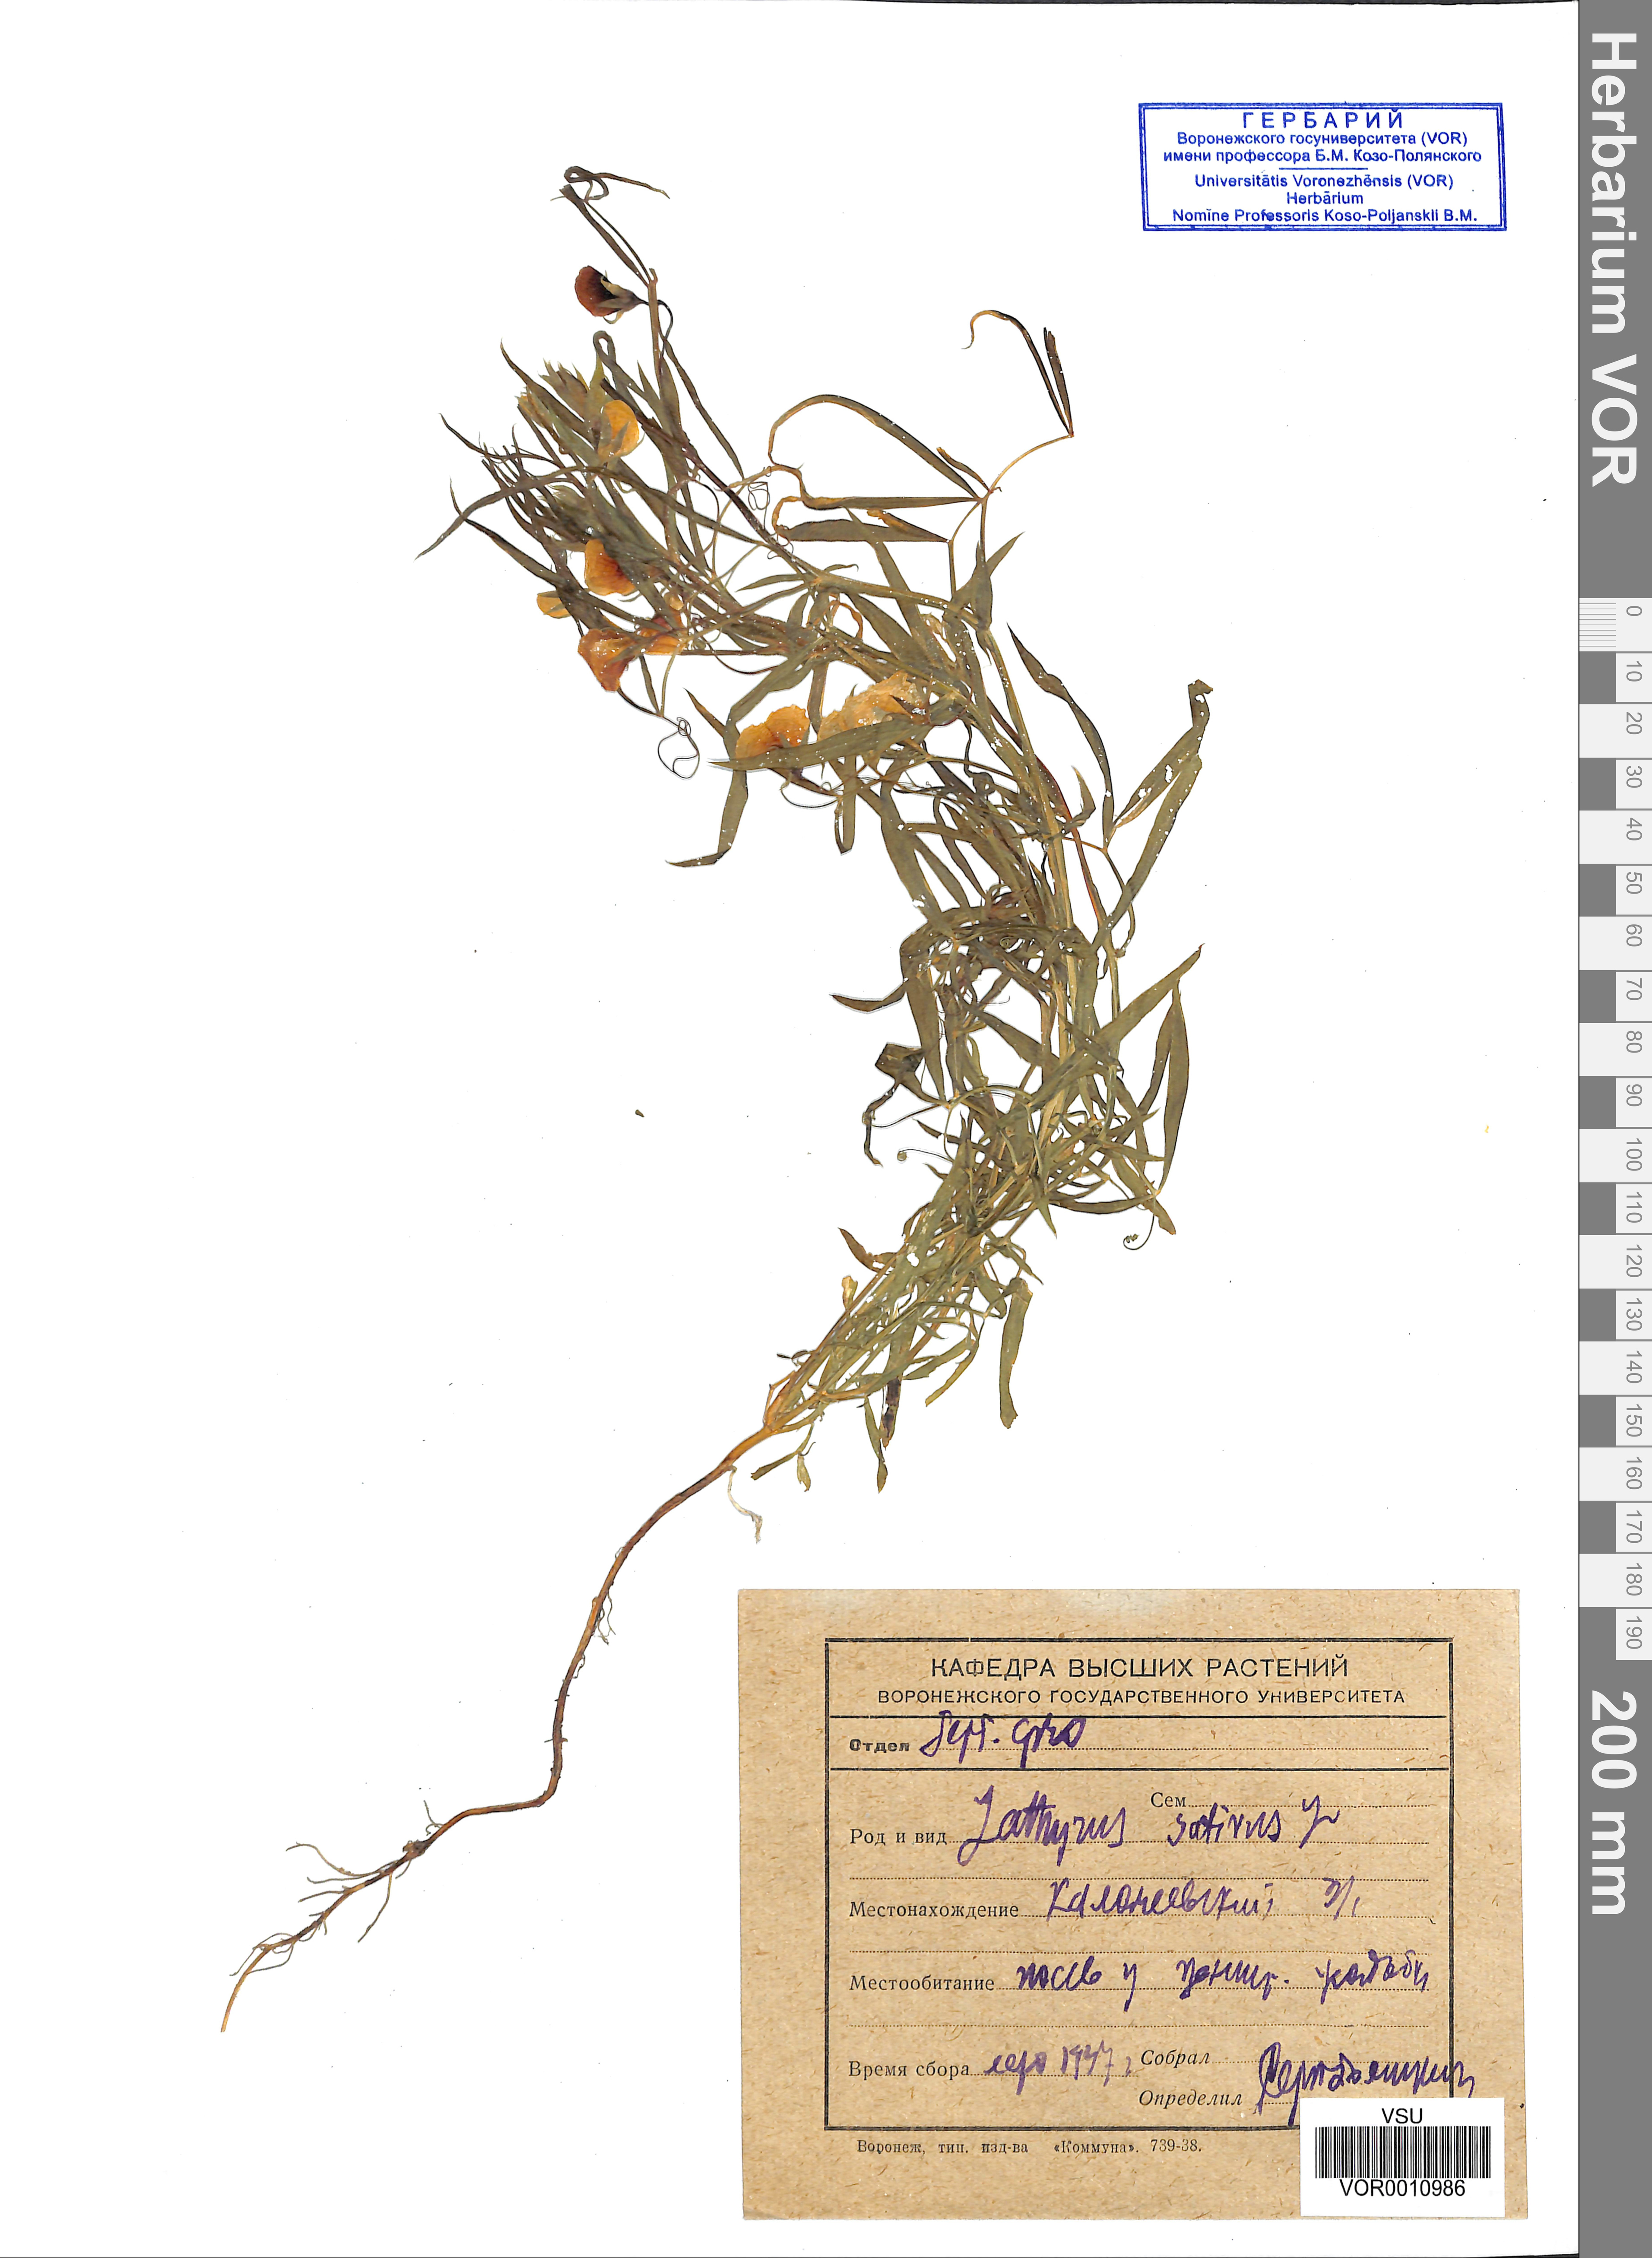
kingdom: Plantae
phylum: Tracheophyta
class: Magnoliopsida
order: Fabales
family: Fabaceae
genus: Lathyrus
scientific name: Lathyrus sativus
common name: Indian pea
